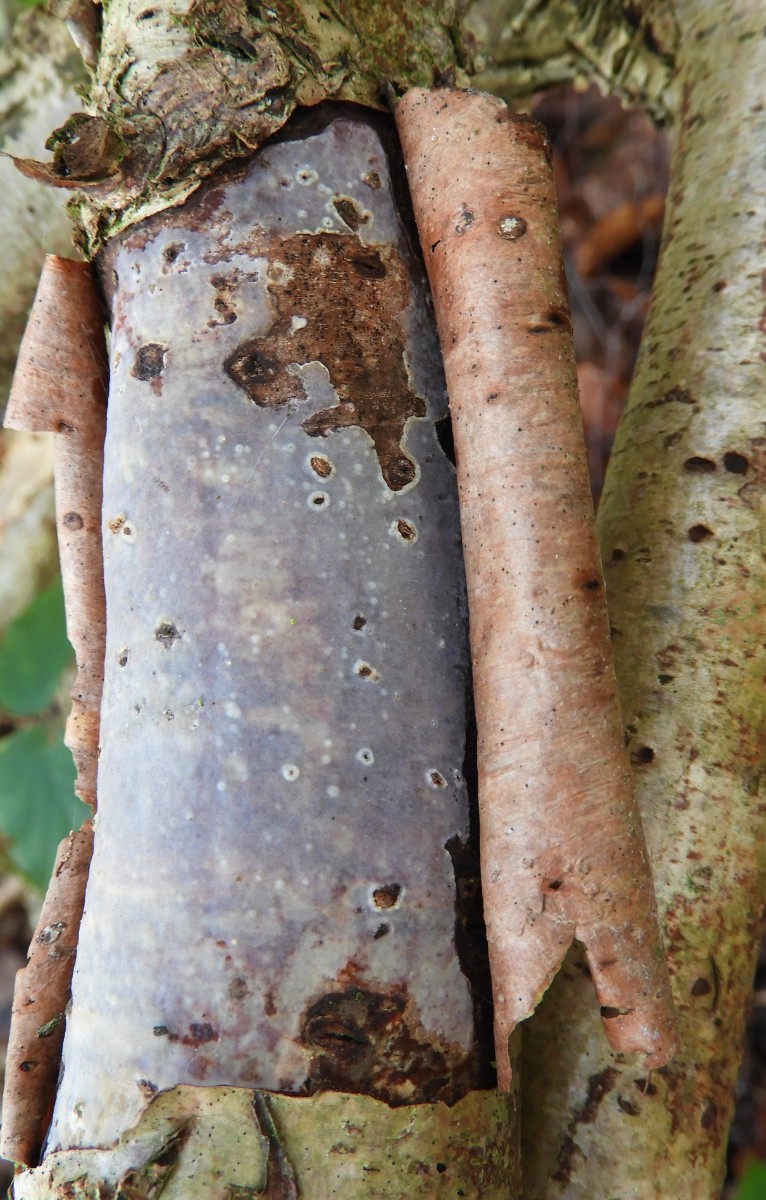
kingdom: Fungi
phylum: Basidiomycota
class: Agaricomycetes
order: Corticiales
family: Vuilleminiaceae
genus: Vuilleminia
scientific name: Vuilleminia coryli
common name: hassel-barksprænger
